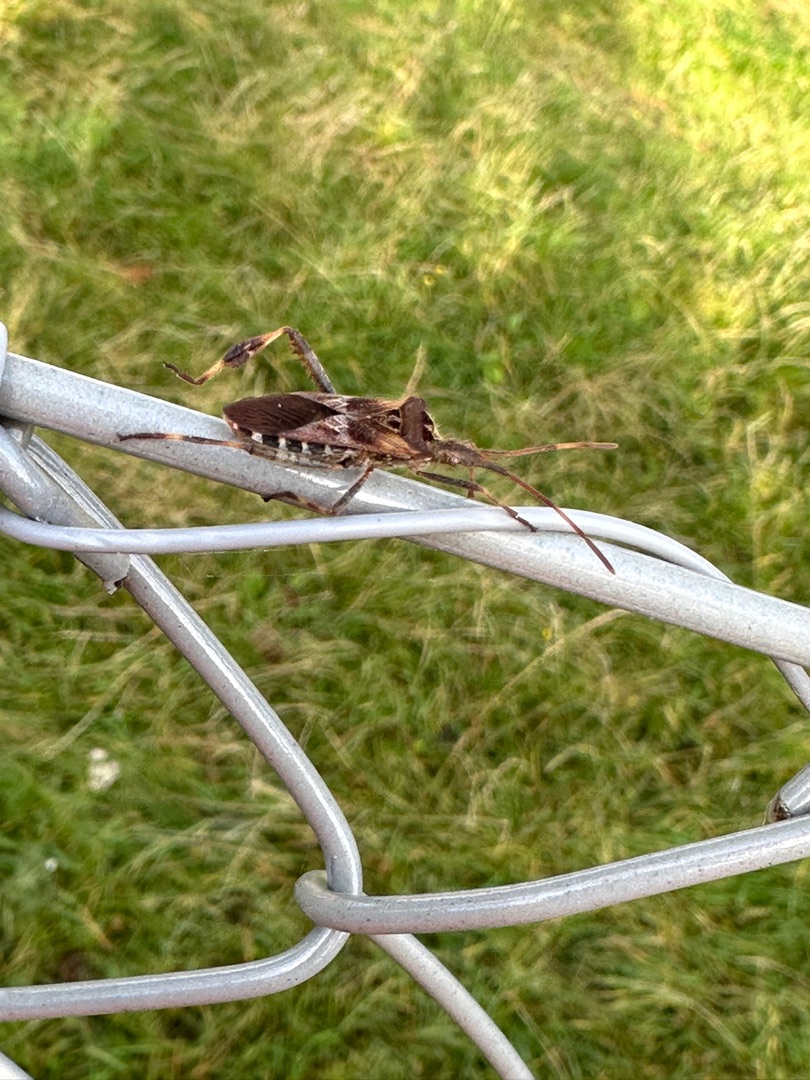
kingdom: Animalia
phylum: Arthropoda
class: Insecta
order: Hemiptera
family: Coreidae
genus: Leptoglossus
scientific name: Leptoglossus occidentalis
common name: Amerikansk fyrretæge
